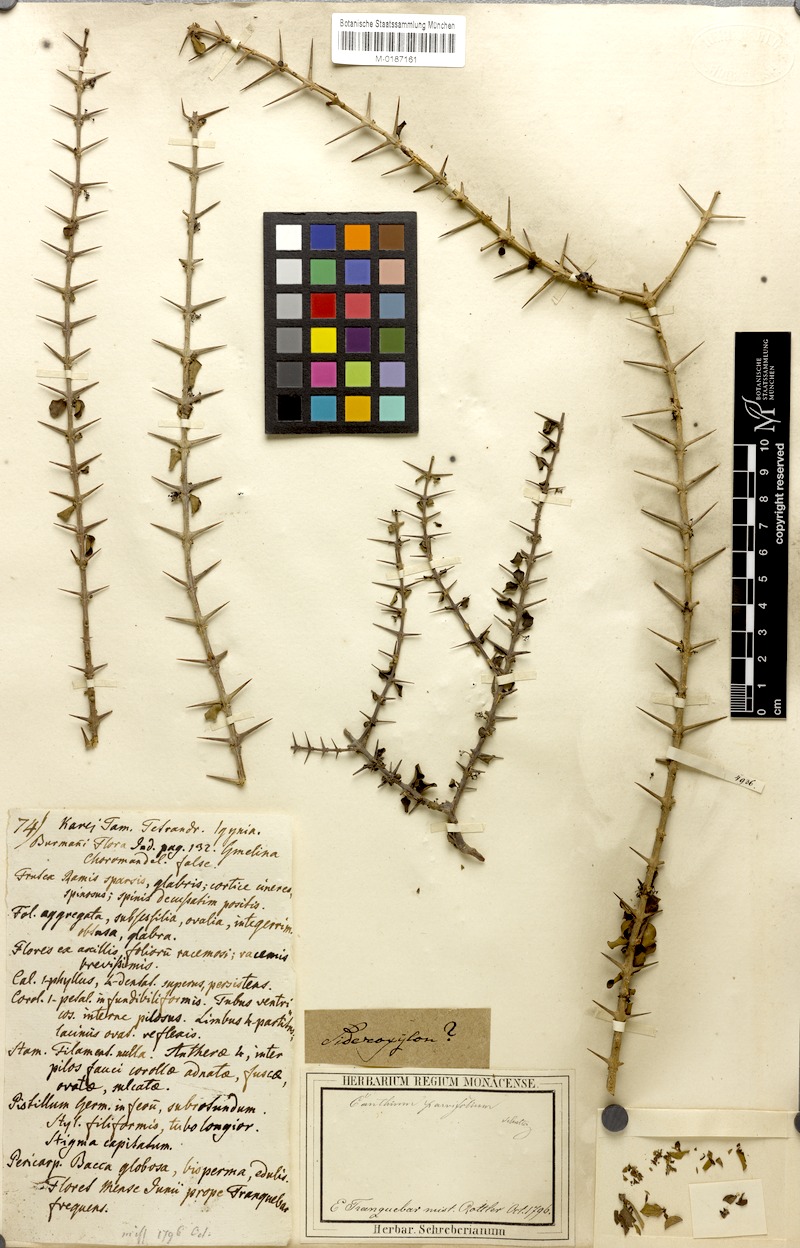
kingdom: Plantae
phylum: Tracheophyta
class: Magnoliopsida
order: Gentianales
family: Rubiaceae
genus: Canthium
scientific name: Canthium coromandelicum
